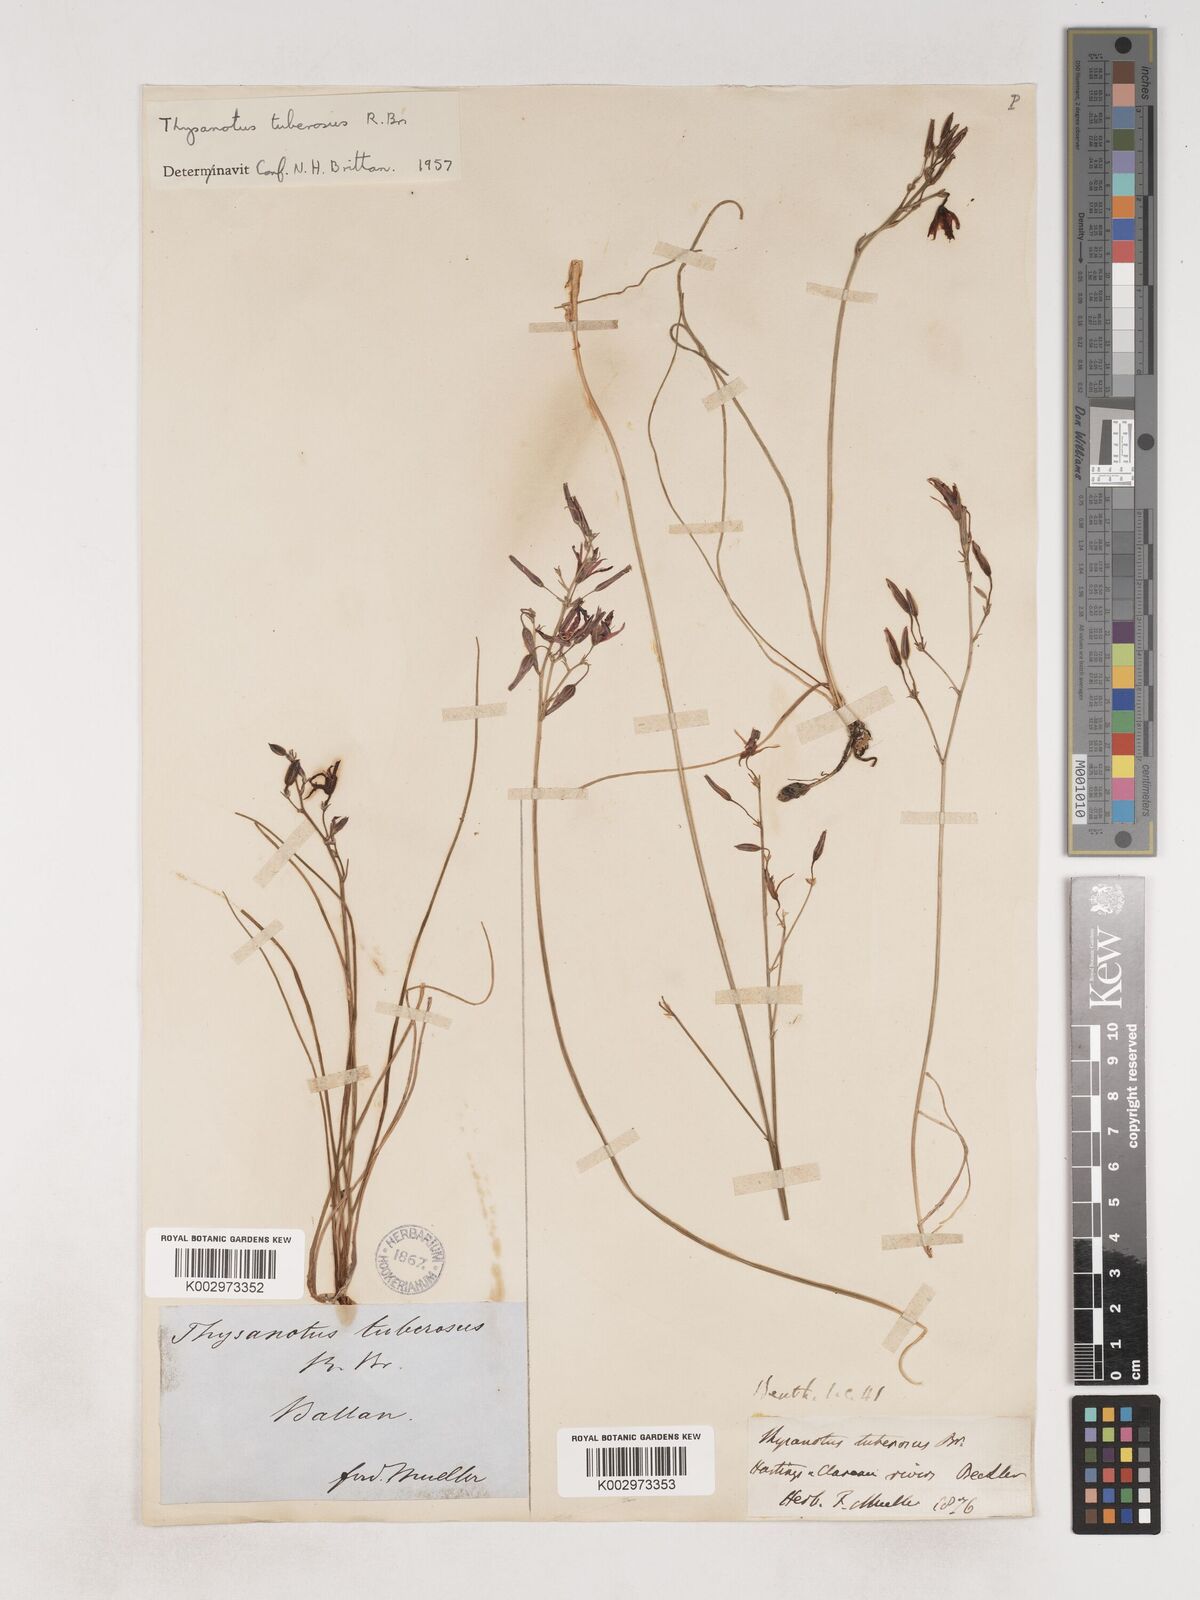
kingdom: Plantae
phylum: Tracheophyta
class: Liliopsida
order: Asparagales
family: Asparagaceae
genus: Thysanotus
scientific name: Thysanotus tuberosus
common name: Common fringed-lily
